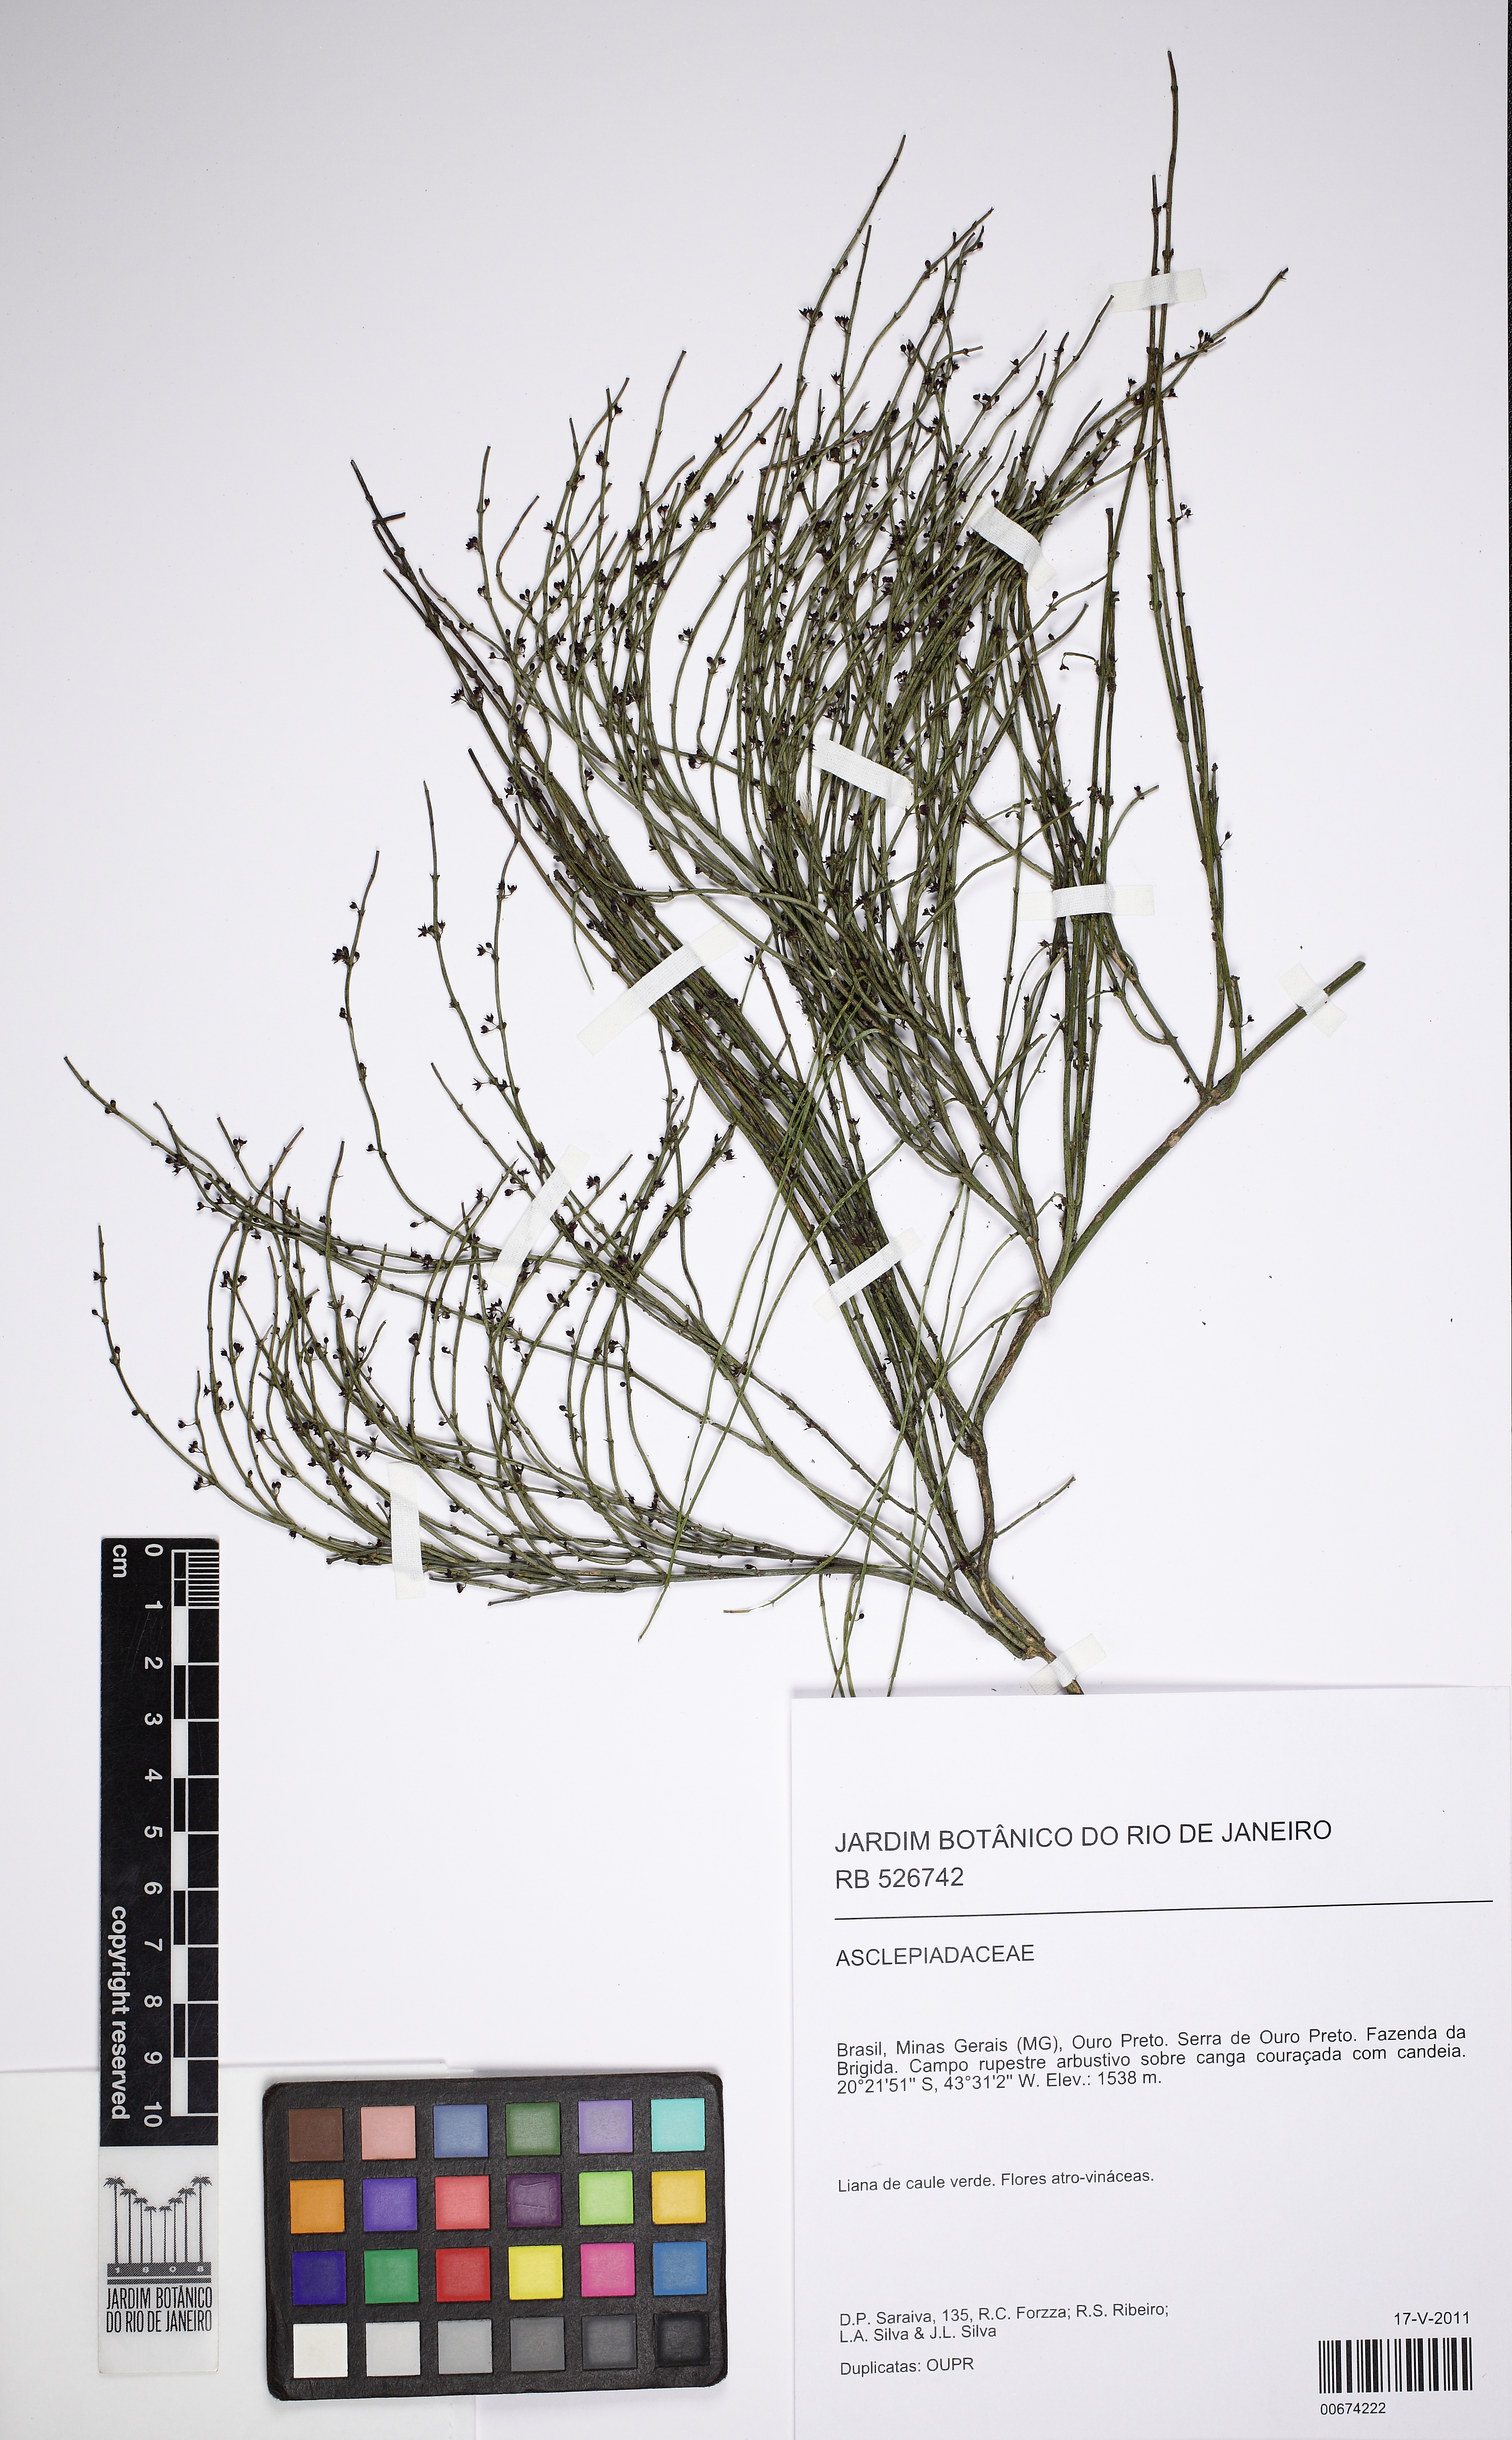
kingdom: Plantae
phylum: Tracheophyta
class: Magnoliopsida
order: Gentianales
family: Apocynaceae
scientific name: Apocynaceae
